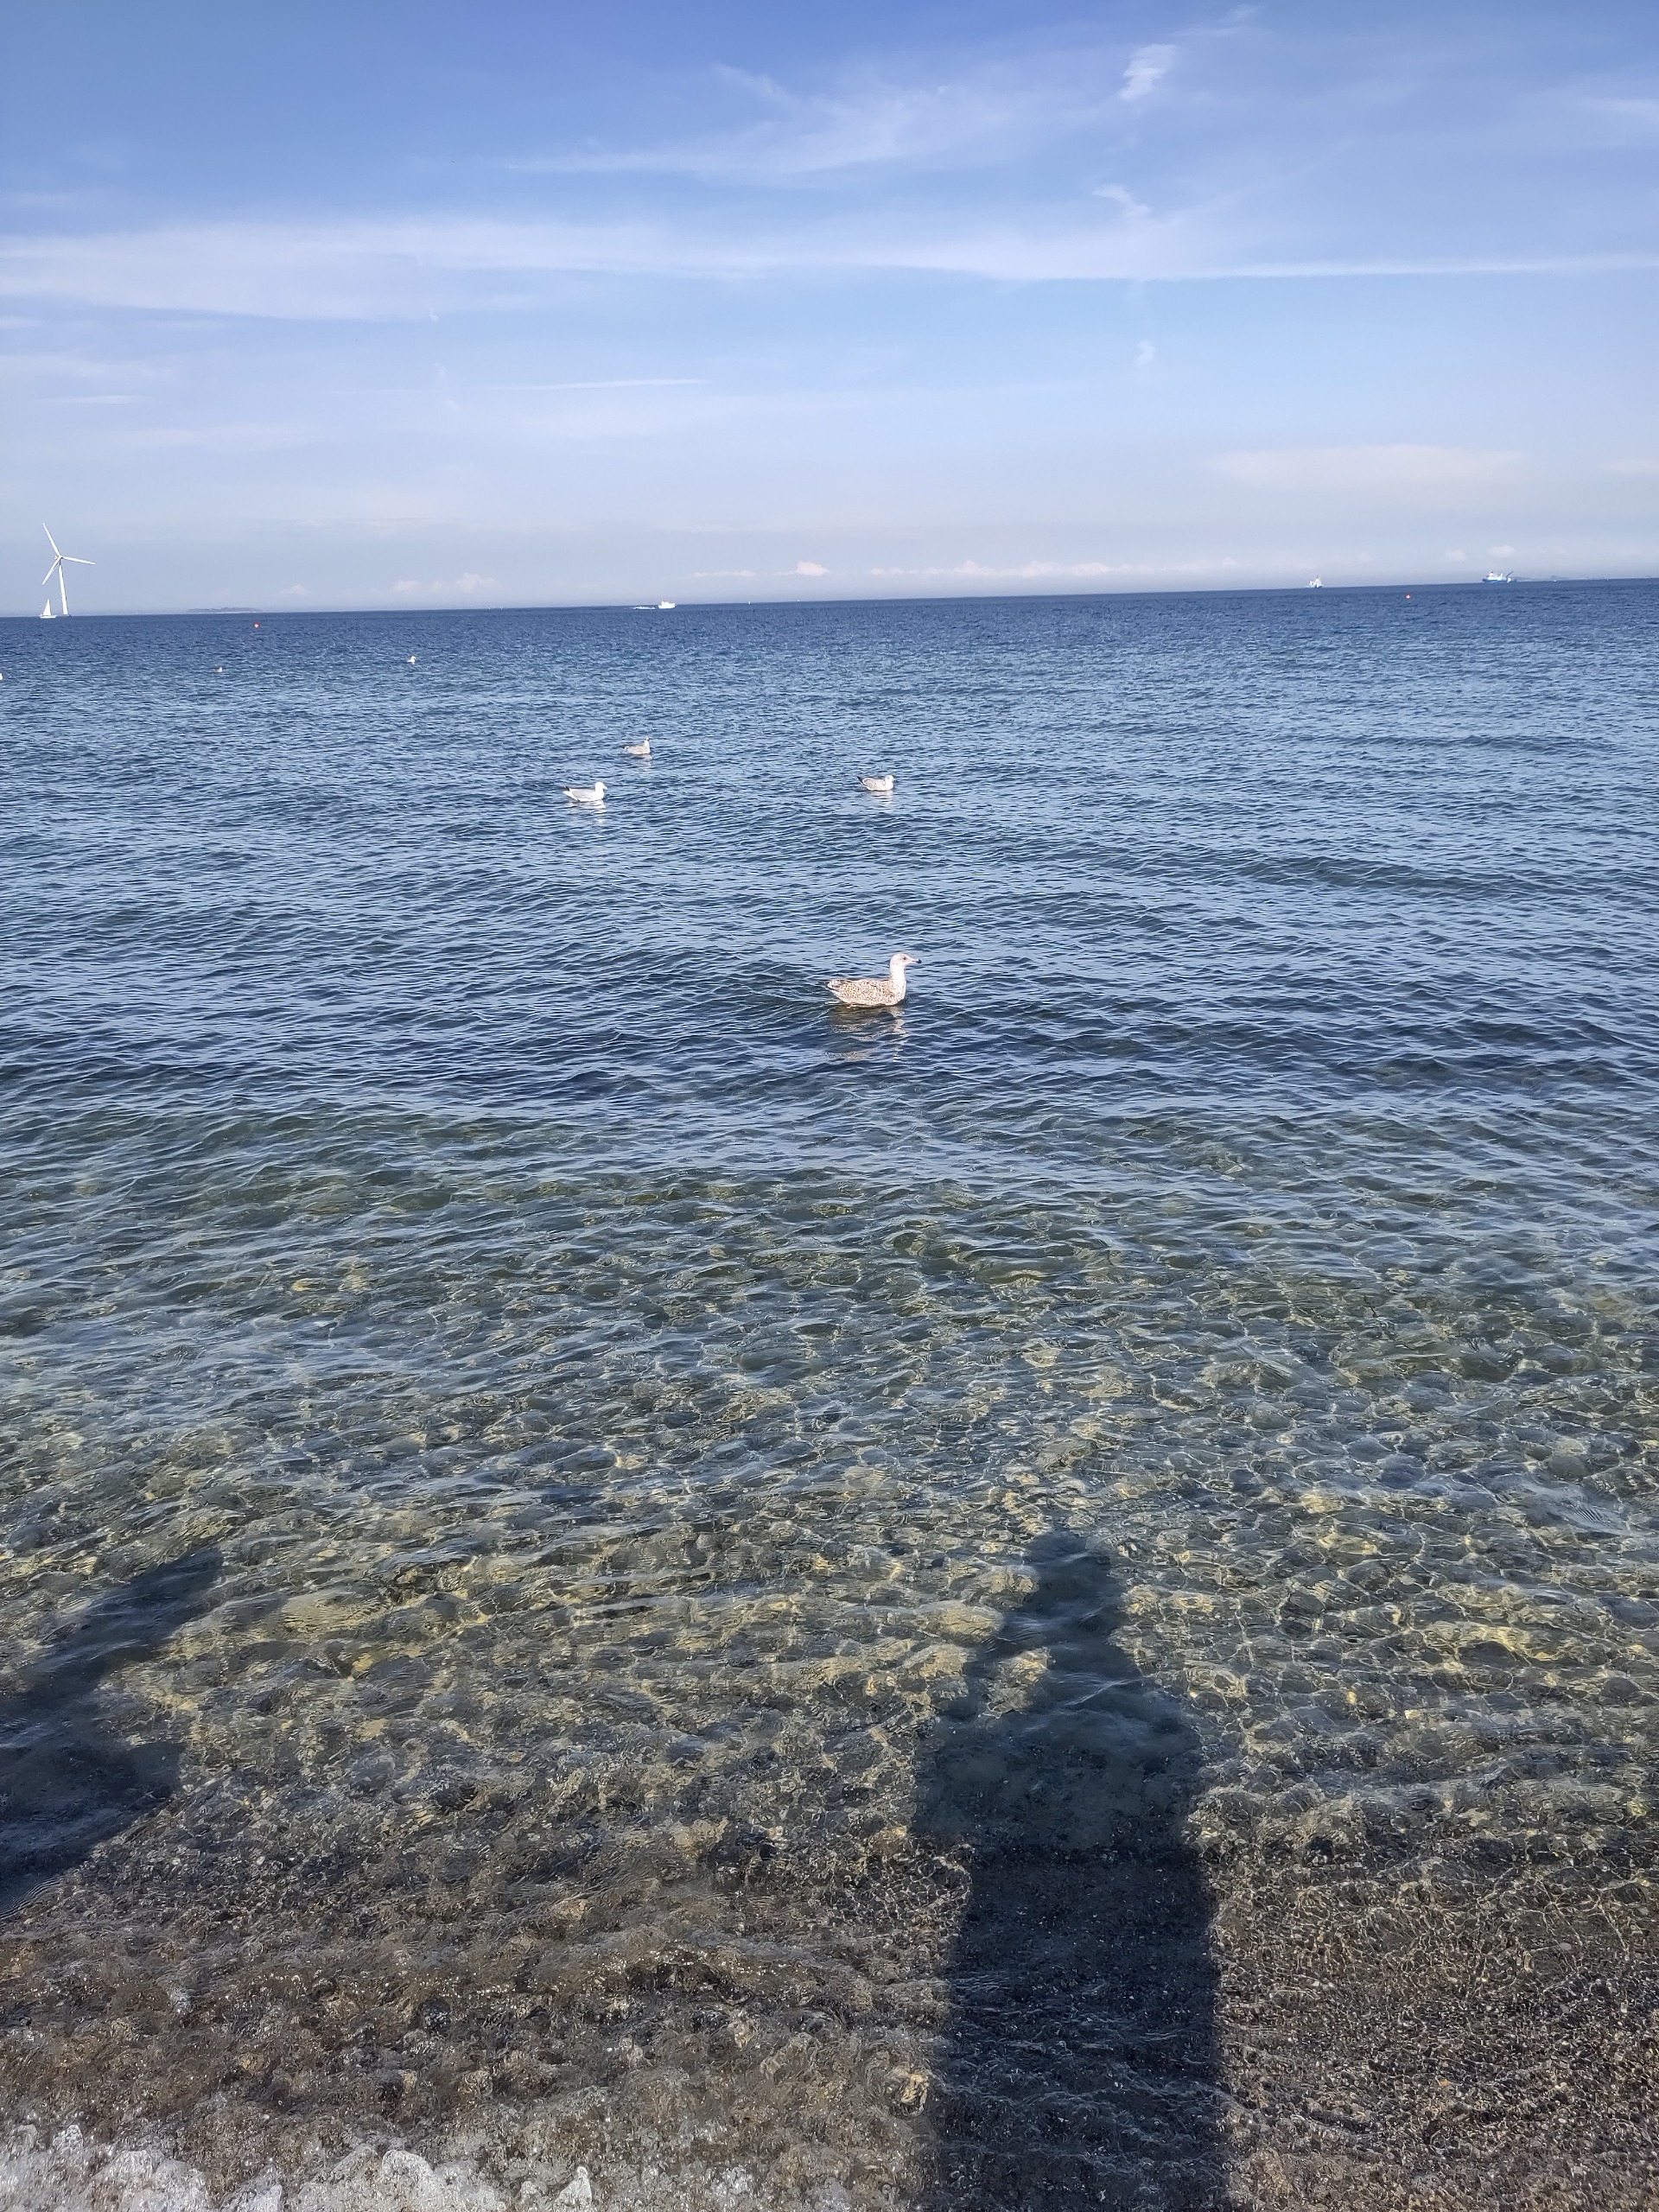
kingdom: Animalia
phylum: Chordata
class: Aves
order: Charadriiformes
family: Laridae
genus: Larus
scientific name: Larus argentatus
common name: Sølvmåge
